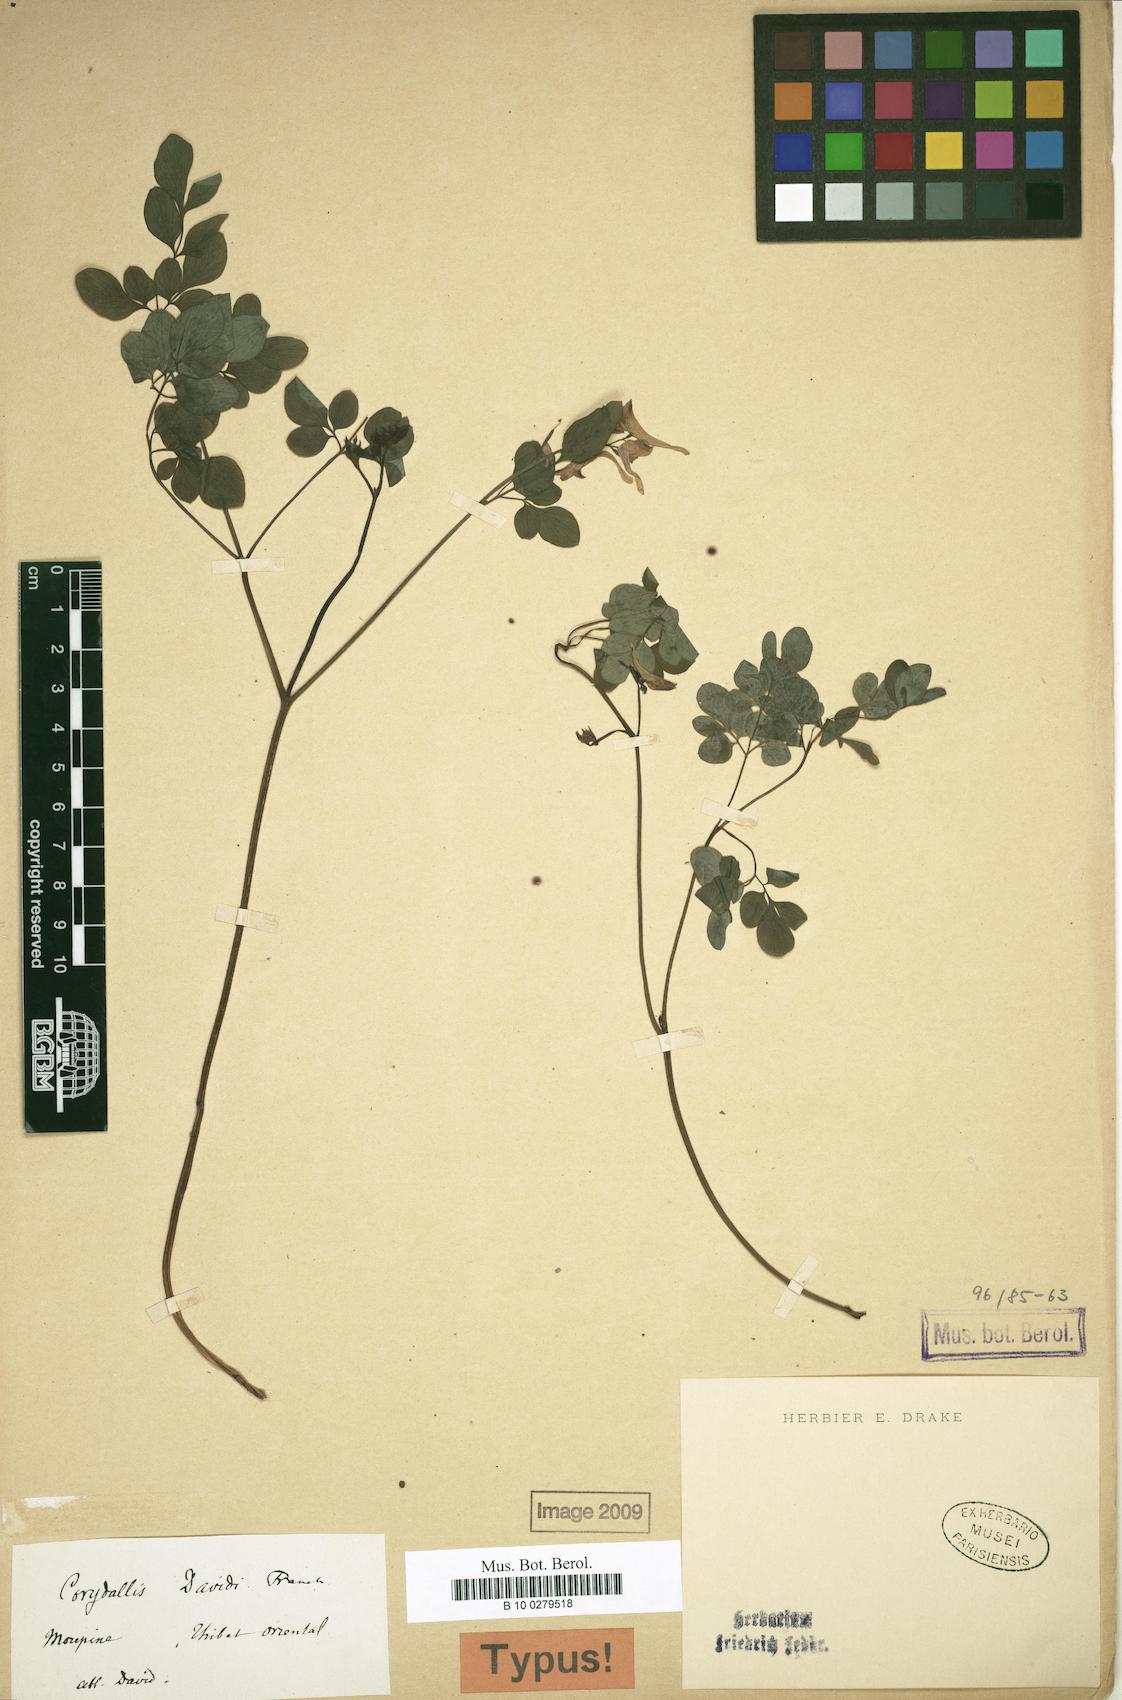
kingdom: Plantae
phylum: Tracheophyta
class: Magnoliopsida
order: Ranunculales
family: Papaveraceae
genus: Corydalis
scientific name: Corydalis davidii
